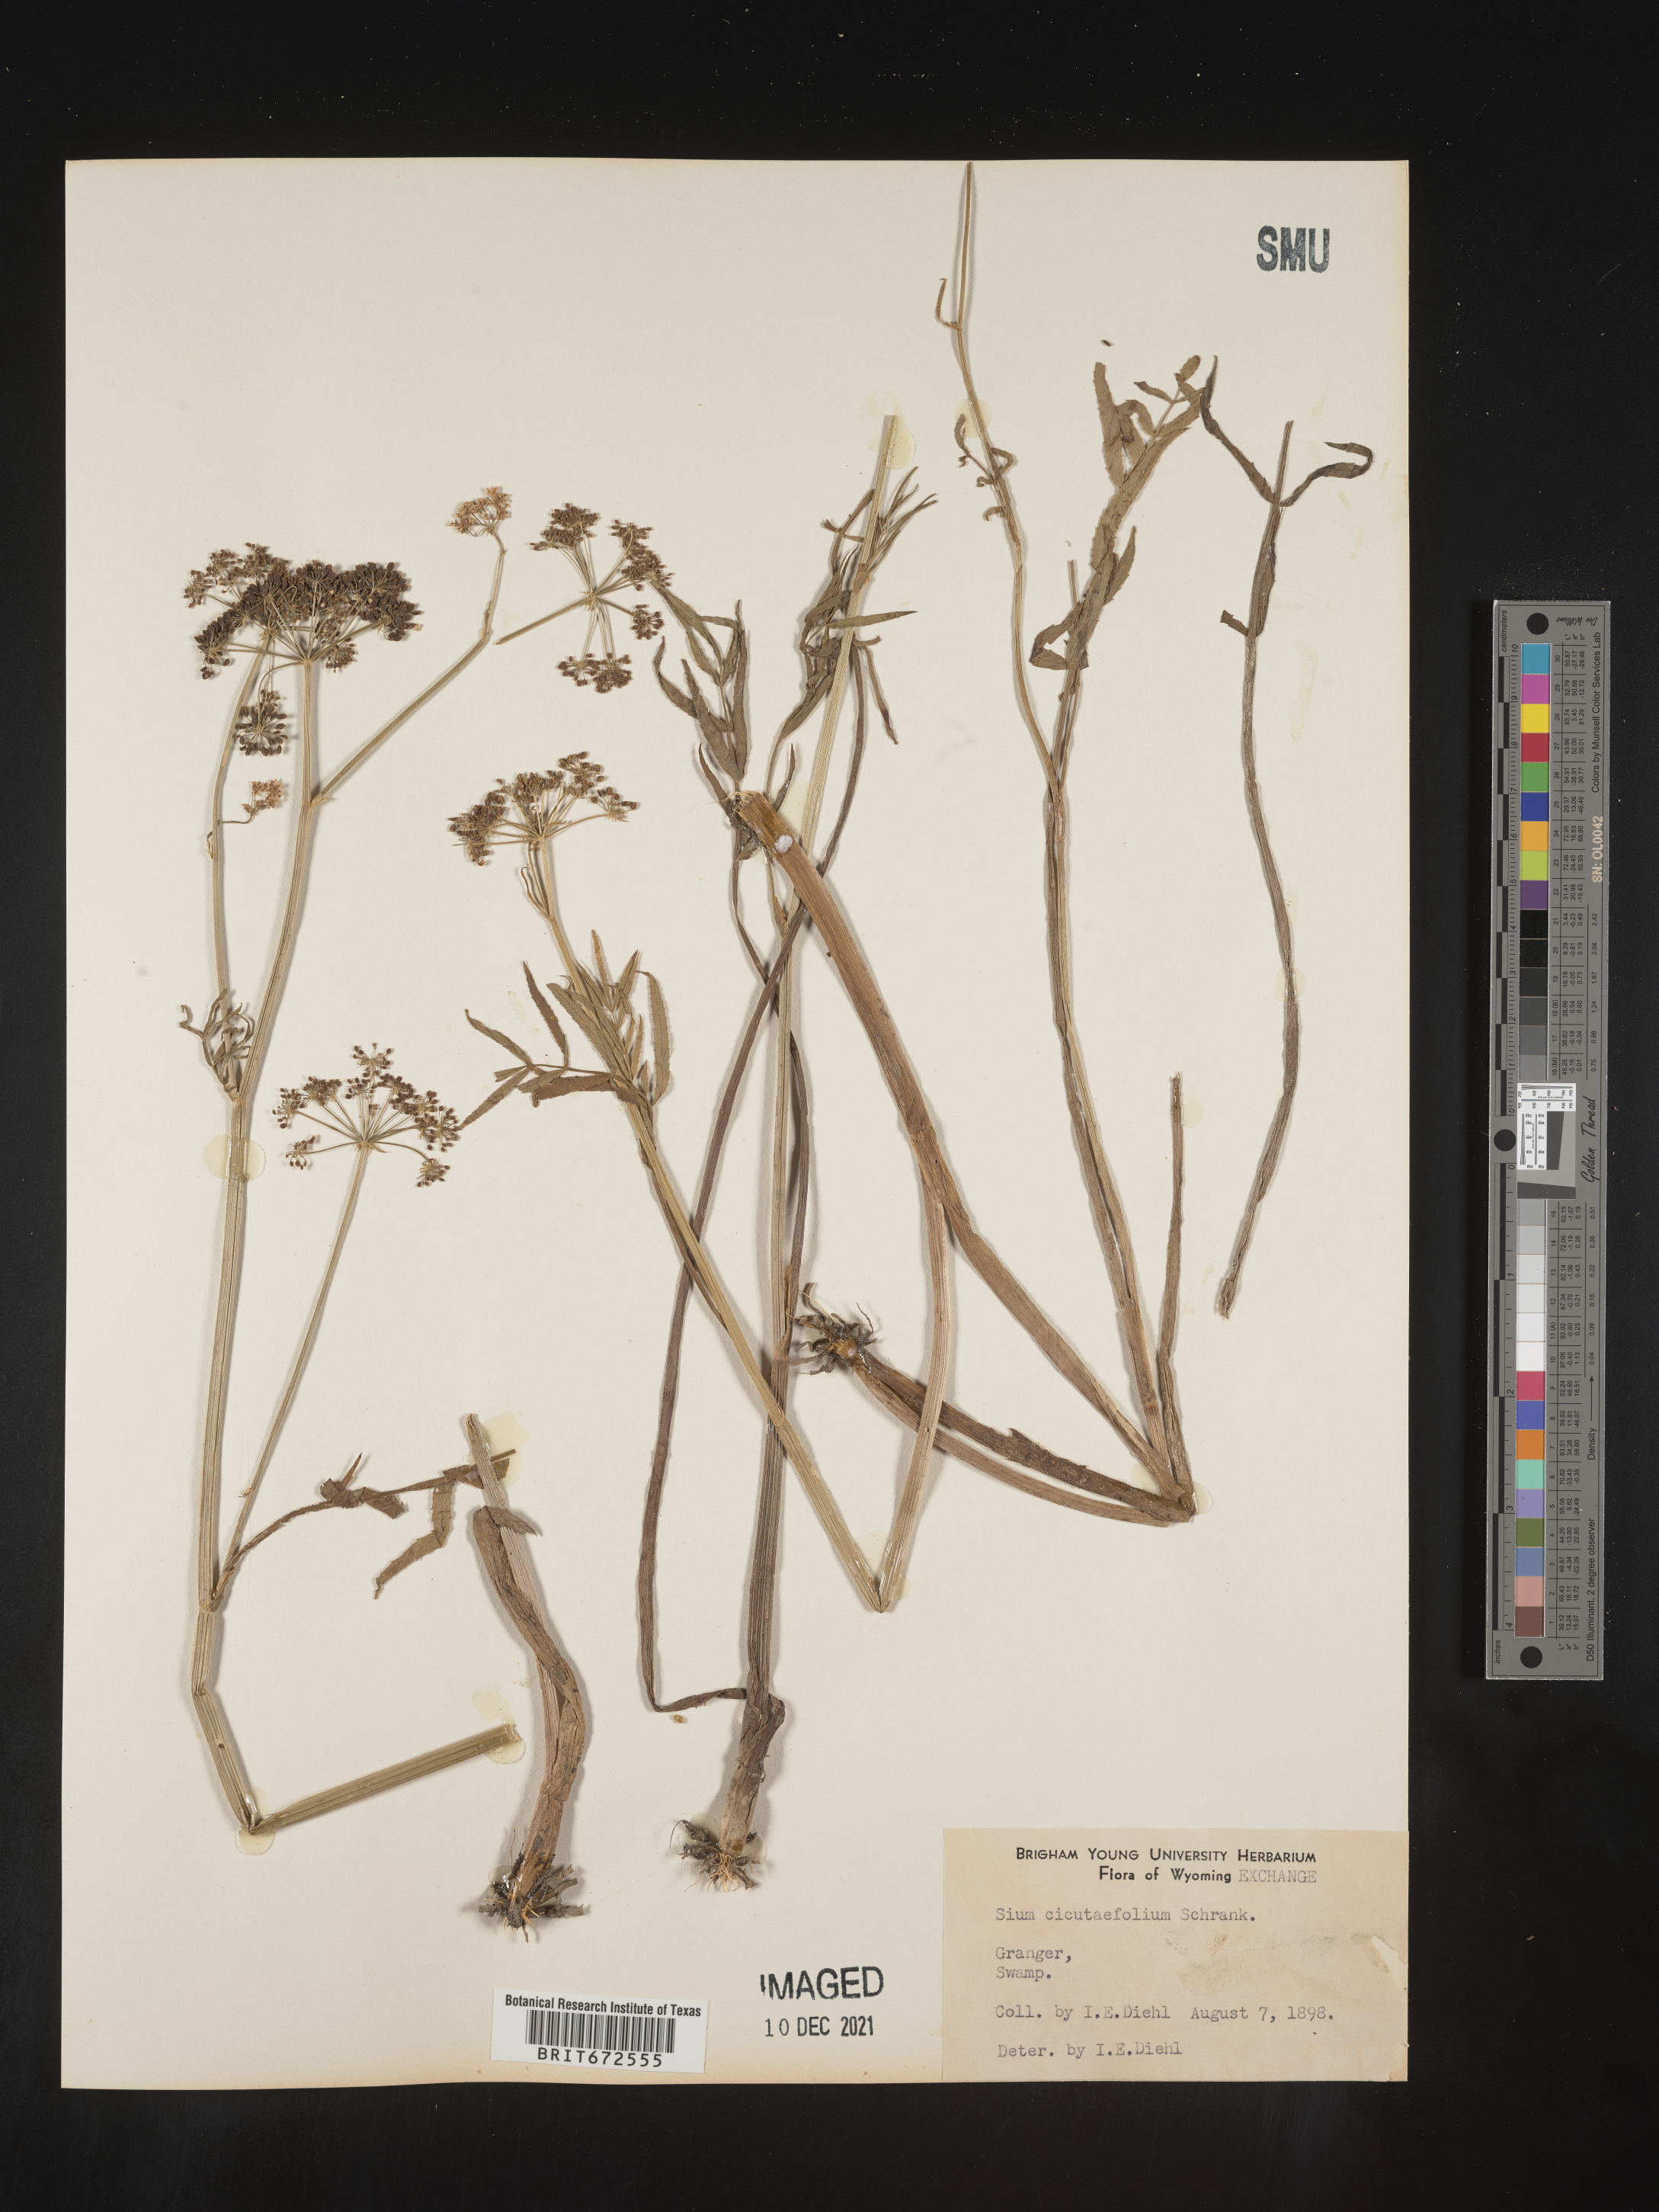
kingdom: Plantae
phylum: Tracheophyta
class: Magnoliopsida
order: Apiales
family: Apiaceae
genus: Sium
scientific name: Sium suave
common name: Hemlock water-parsnip
